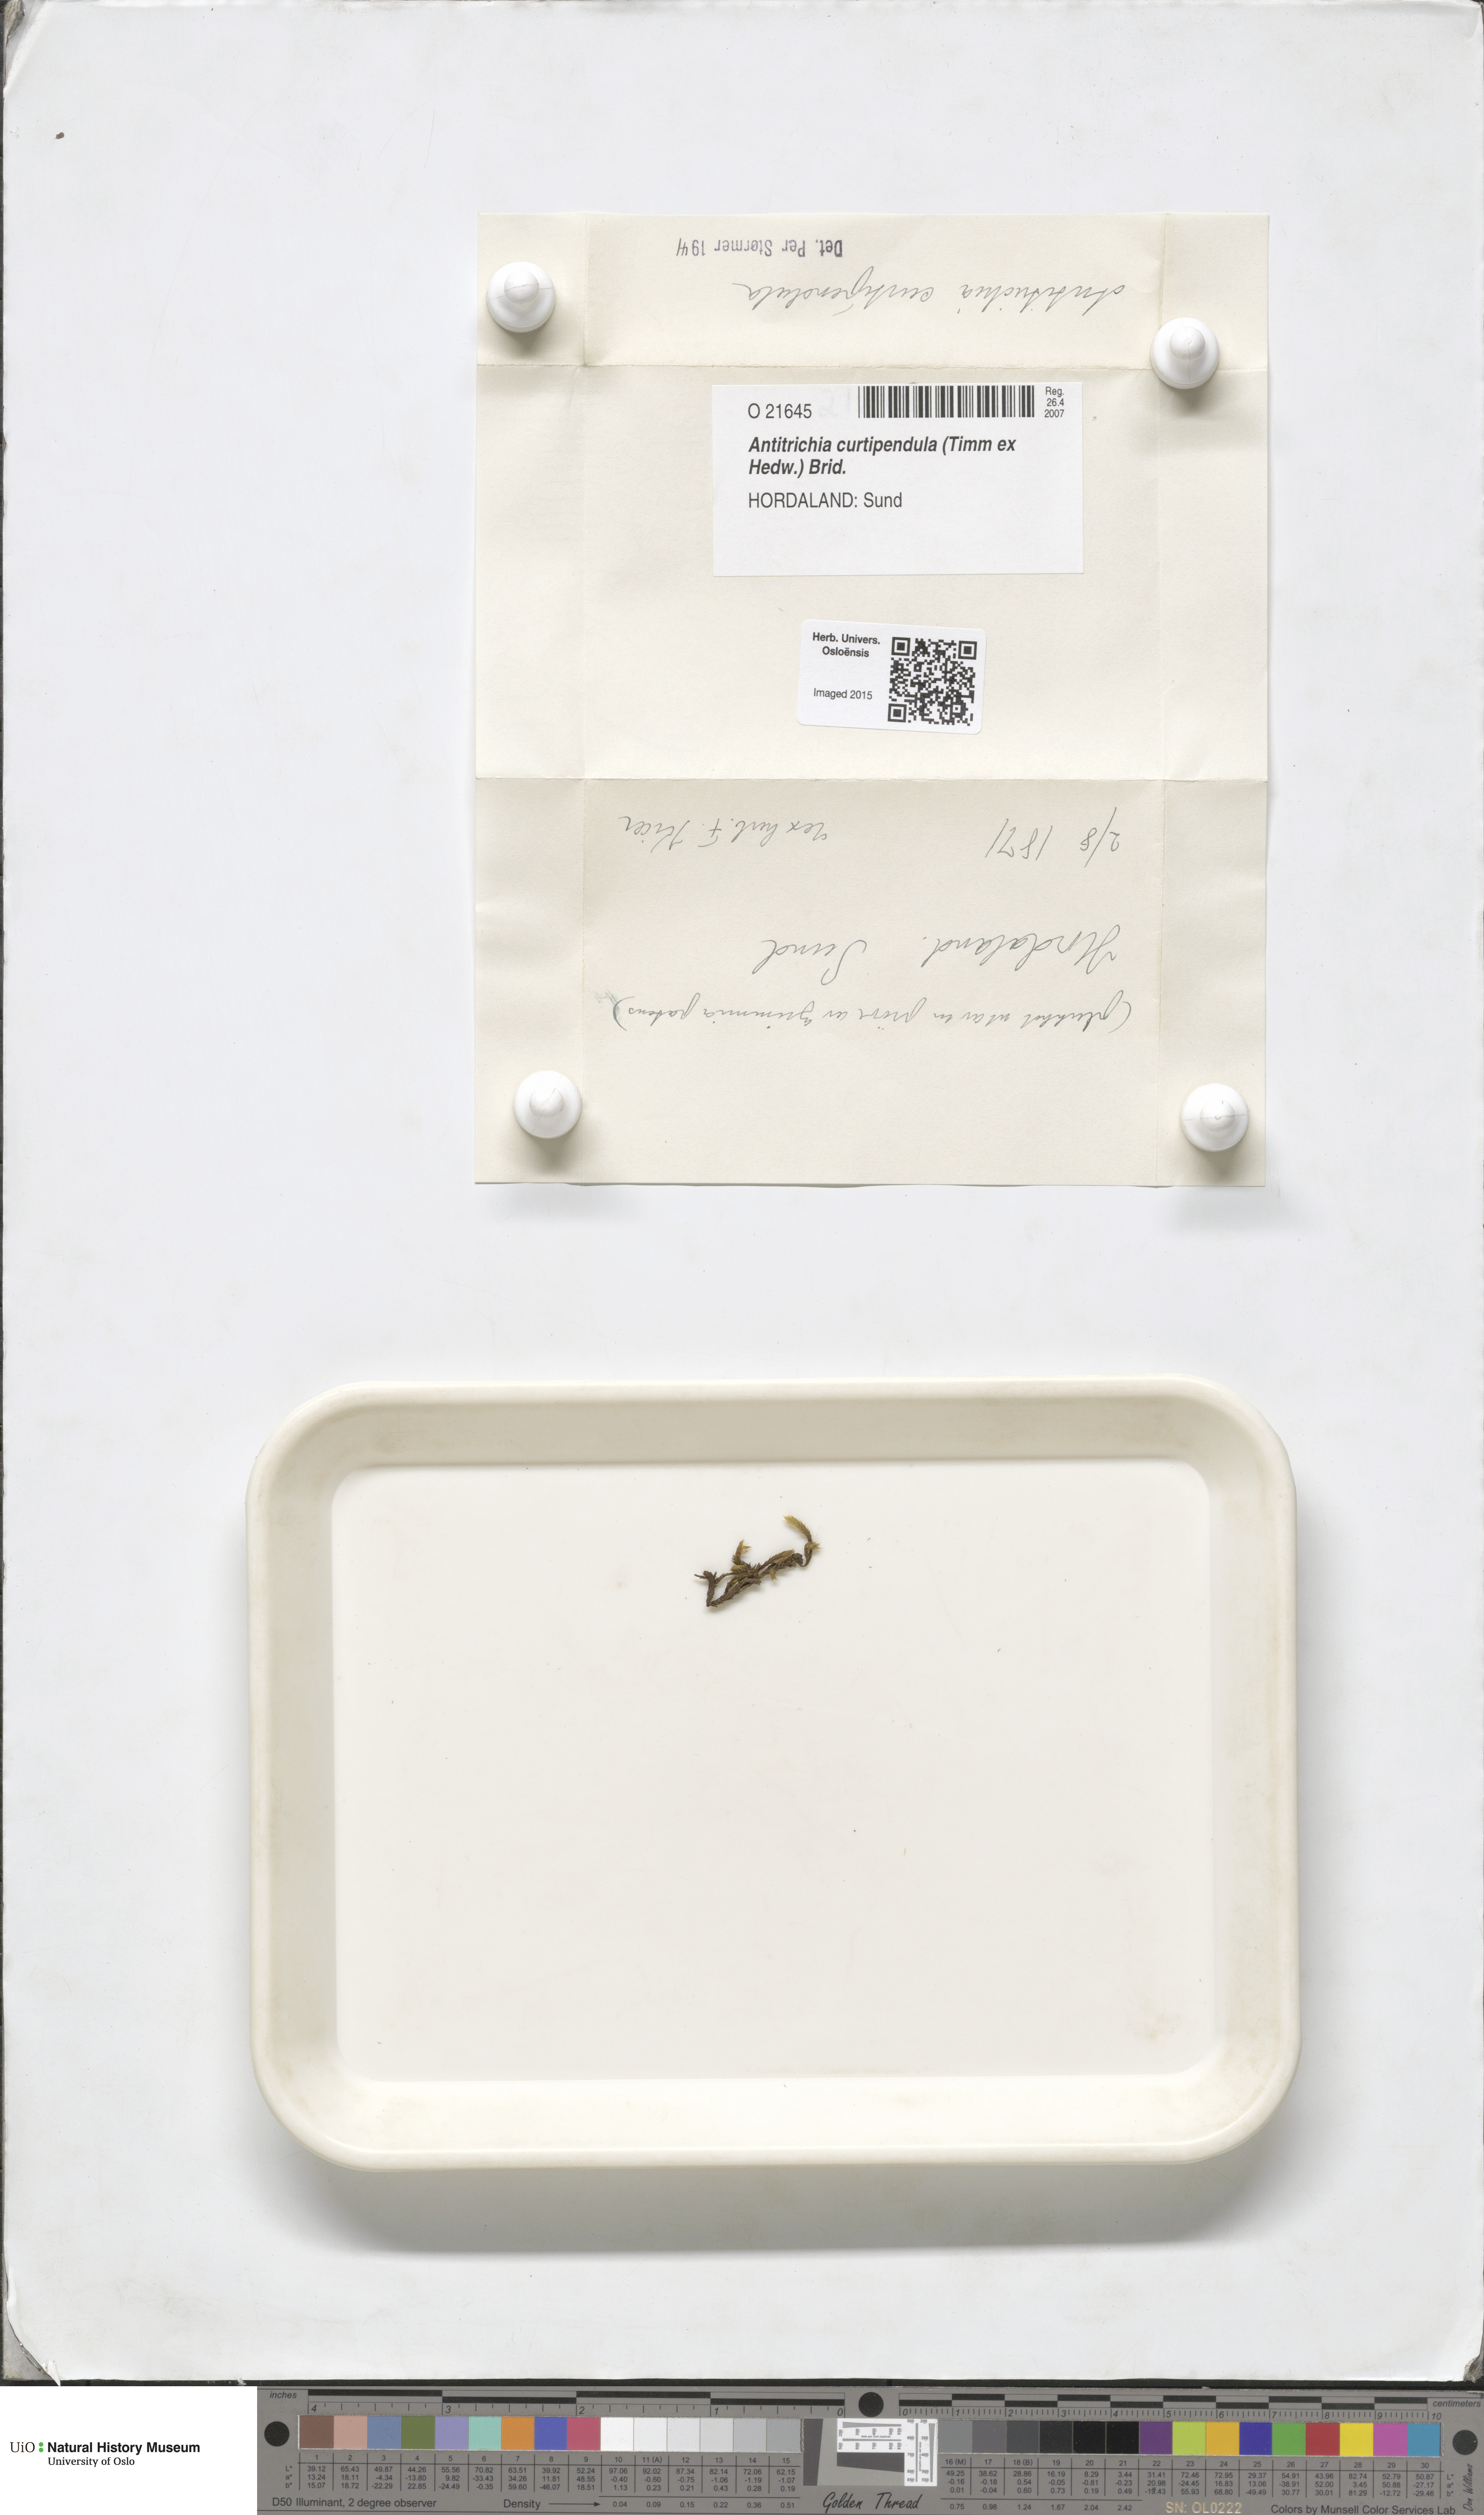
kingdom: Plantae
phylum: Bryophyta
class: Bryopsida
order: Hypnales
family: Antitrichiaceae
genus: Antitrichia
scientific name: Antitrichia curtipendula
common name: Pendulous wing-moss
